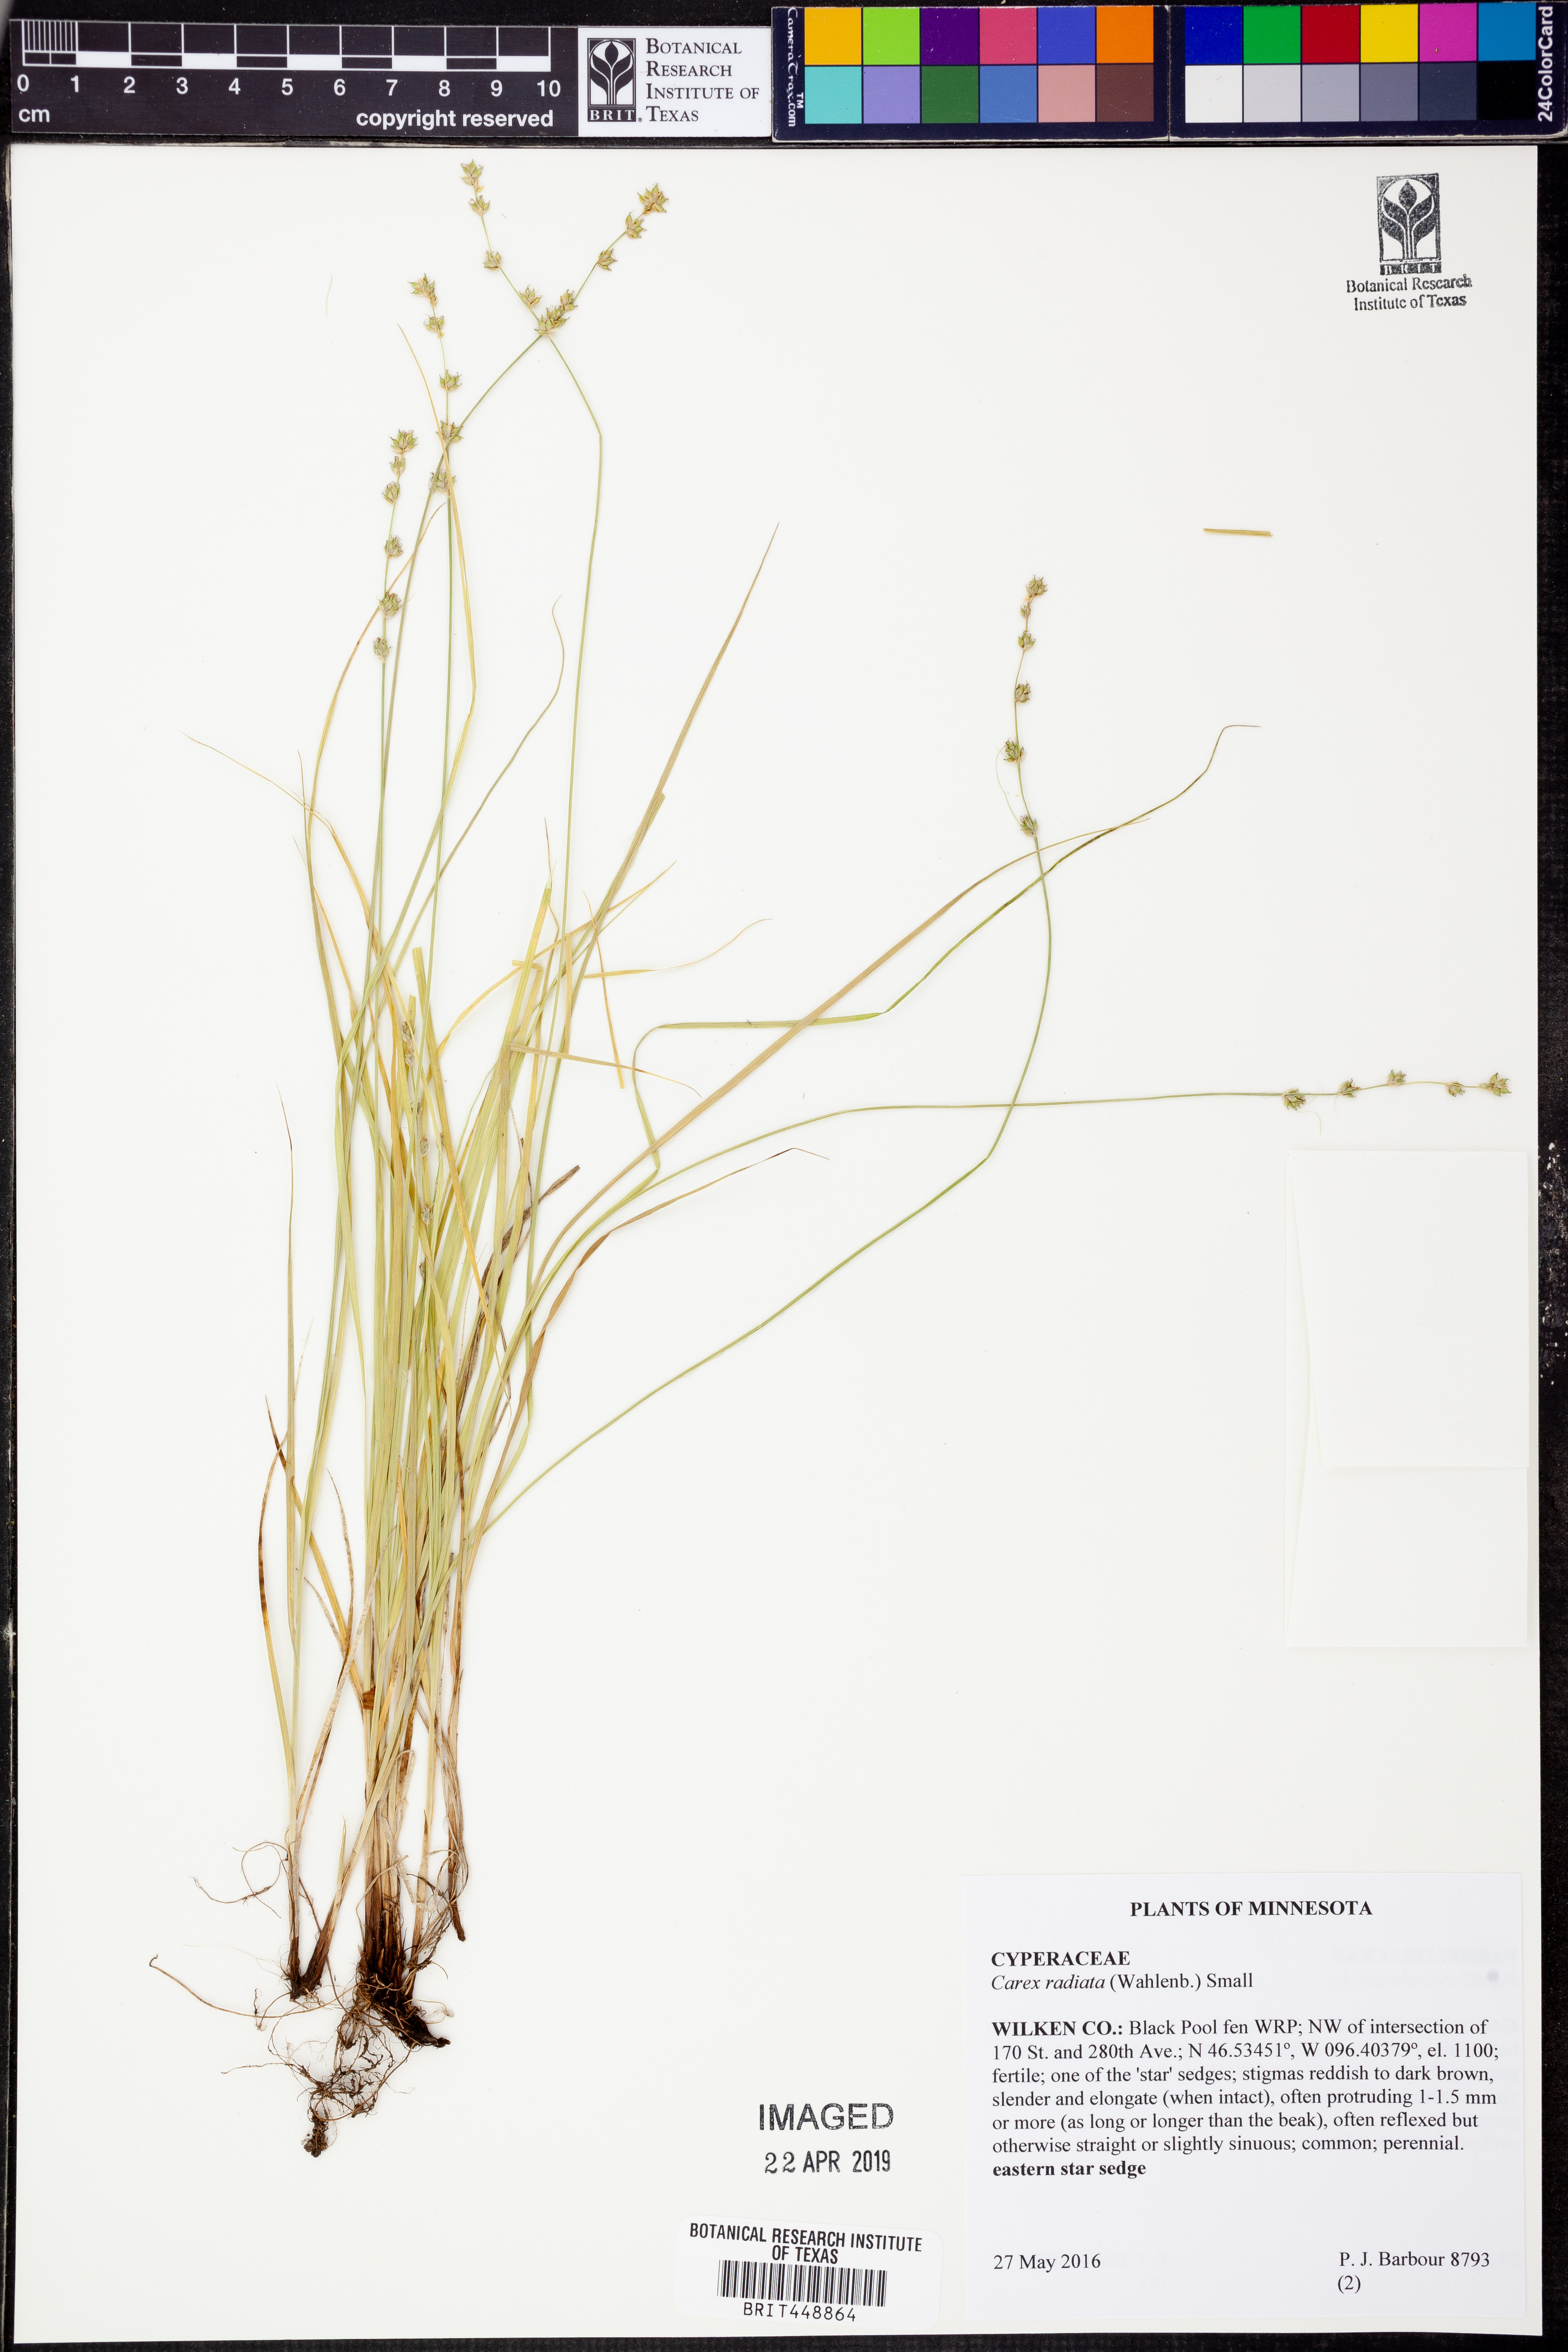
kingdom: Plantae
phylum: Tracheophyta
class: Liliopsida
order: Poales
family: Cyperaceae
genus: Carex
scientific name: Carex radiata
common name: Eastern star sedge
